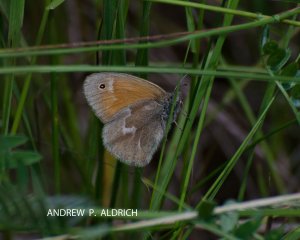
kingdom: Animalia
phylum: Arthropoda
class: Insecta
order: Lepidoptera
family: Nymphalidae
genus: Coenonympha
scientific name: Coenonympha tullia
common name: Large Heath
